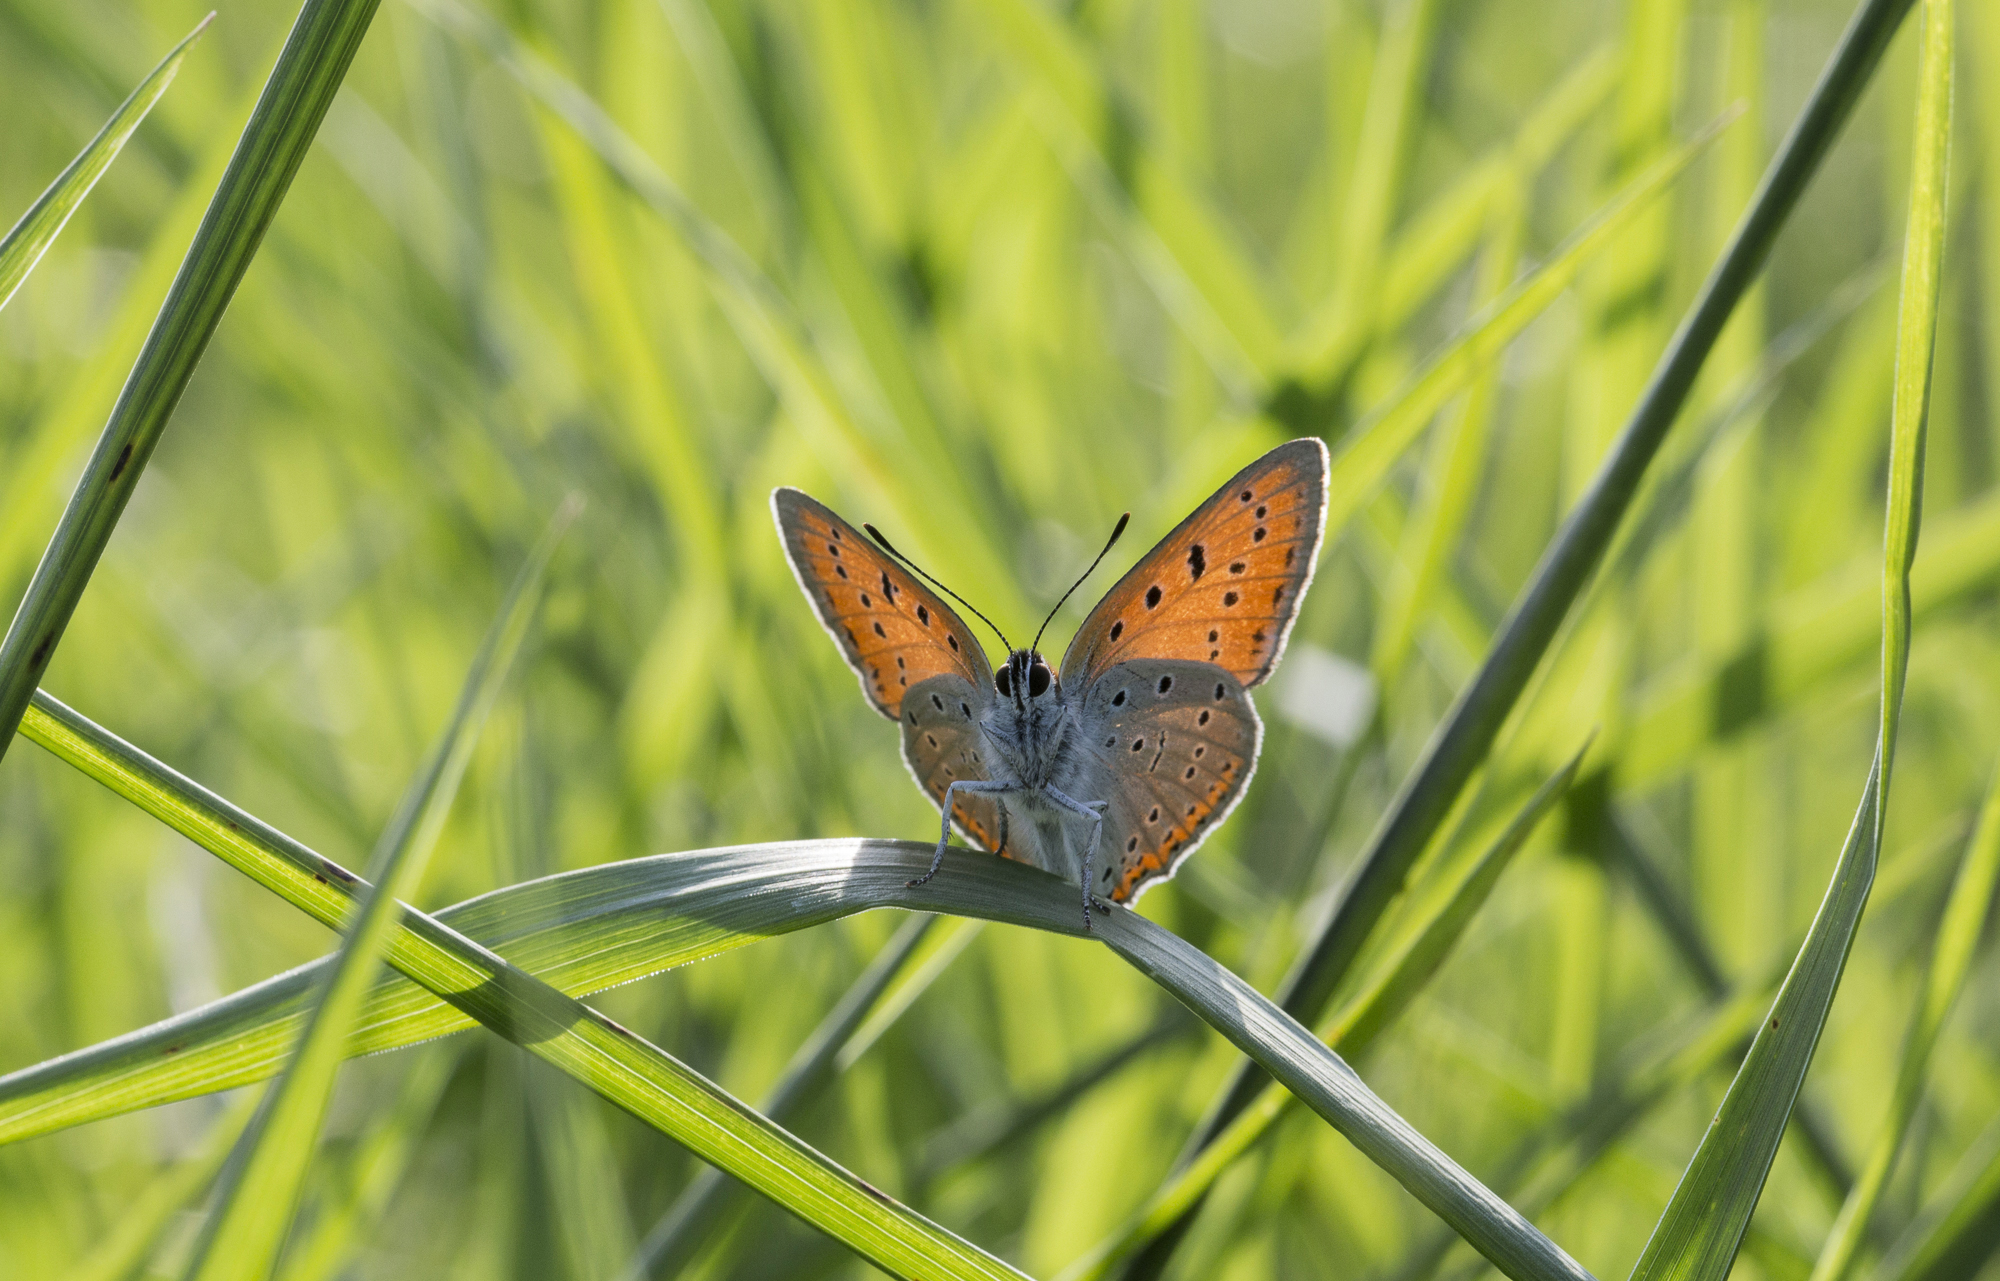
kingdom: Animalia
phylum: Arthropoda
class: Insecta
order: Lepidoptera
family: Lycaenidae
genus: Lycaena
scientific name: Lycaena dispar
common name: Large copper
